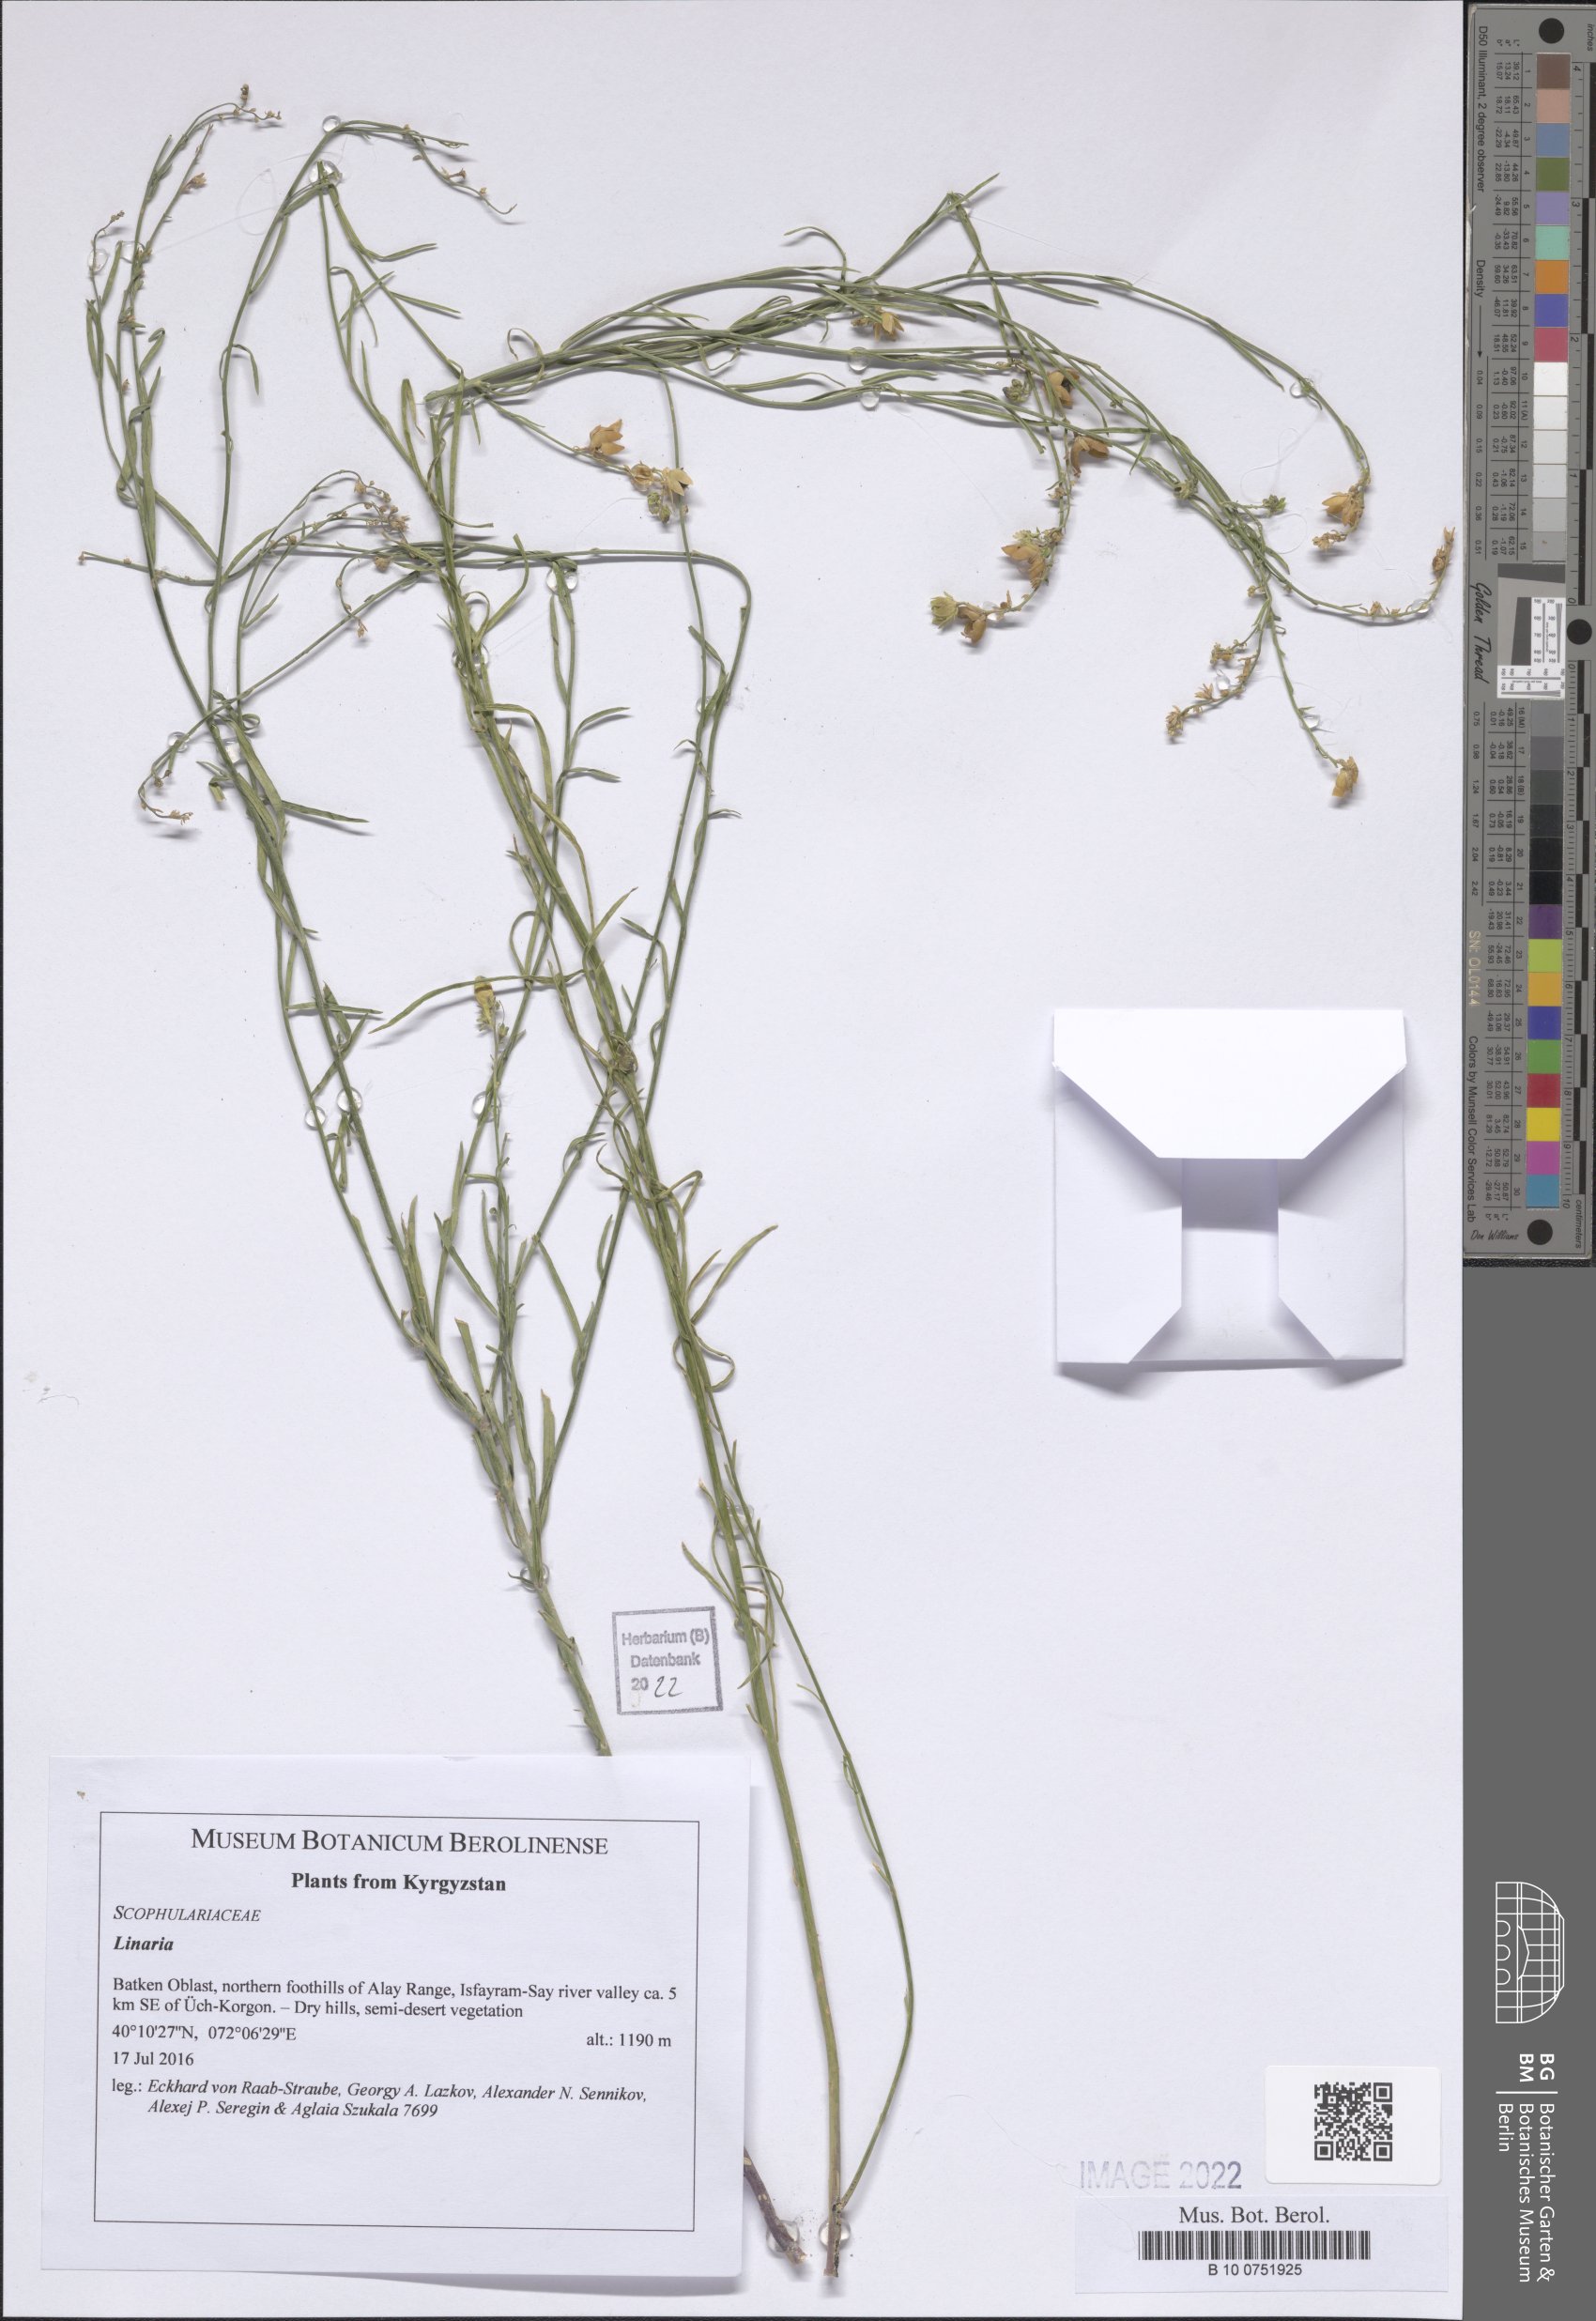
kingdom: Plantae
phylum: Tracheophyta
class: Magnoliopsida
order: Lamiales
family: Plantaginaceae
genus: Linaria
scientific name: Linaria
